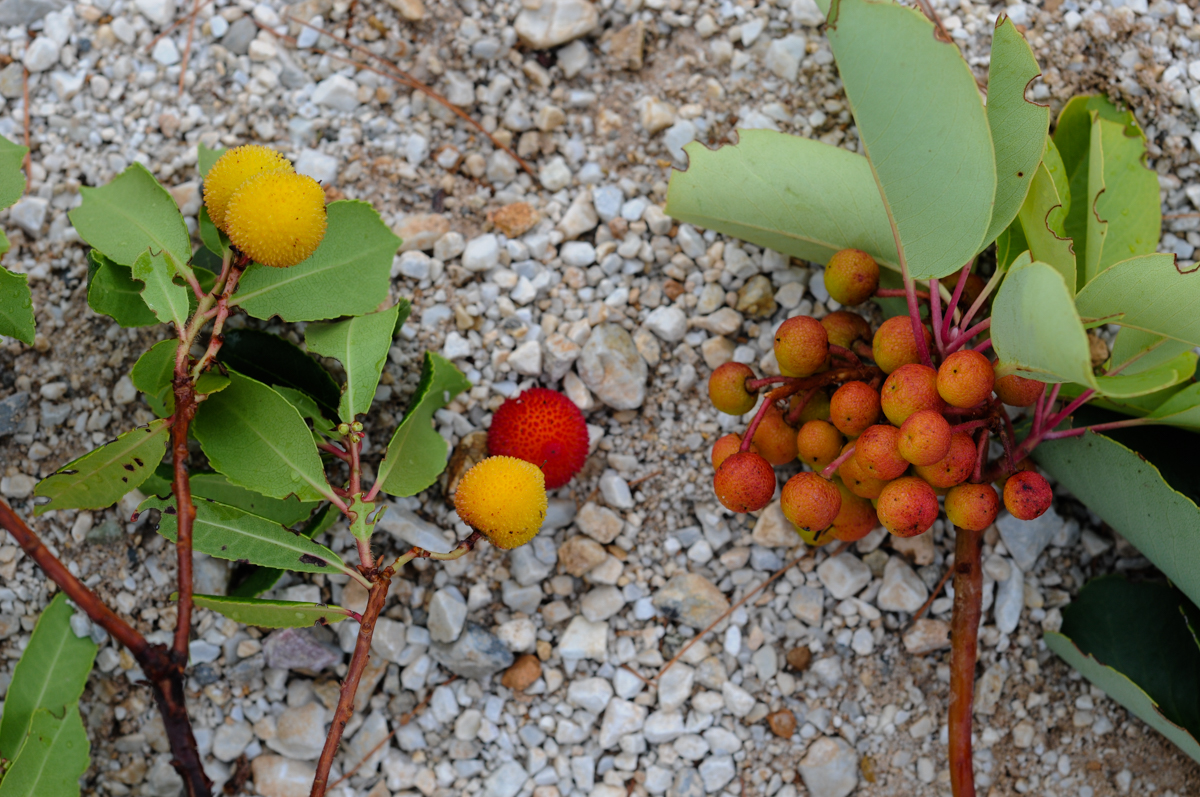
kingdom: Plantae
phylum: Tracheophyta
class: Magnoliopsida
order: Ericales
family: Ericaceae
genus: Arbutus
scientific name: Arbutus andrachne
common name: Greek strawberry tree
